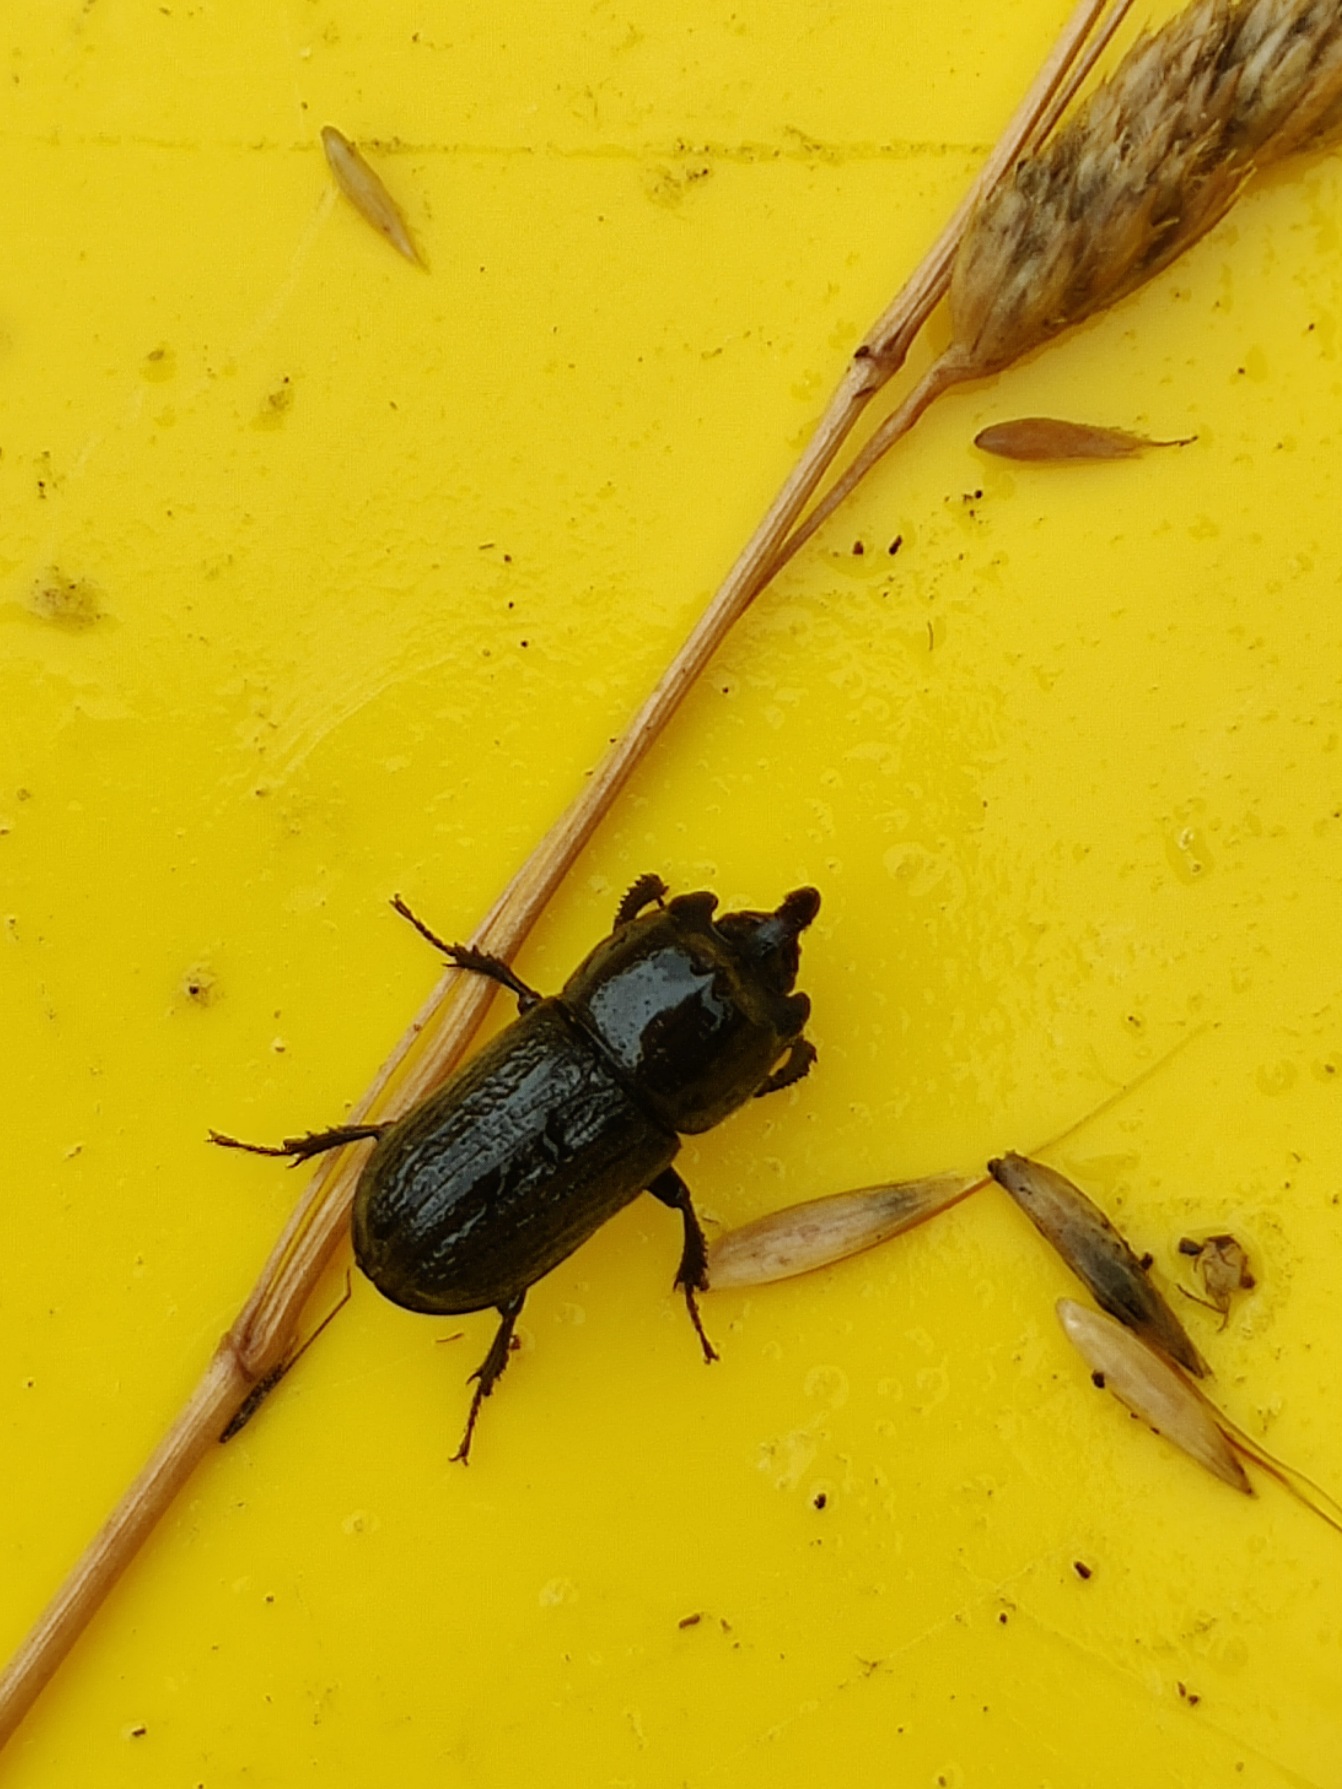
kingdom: Animalia
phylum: Arthropoda
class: Insecta
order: Coleoptera
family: Lucanidae
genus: Sinodendron
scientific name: Sinodendron cylindricum
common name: Valsehjort
